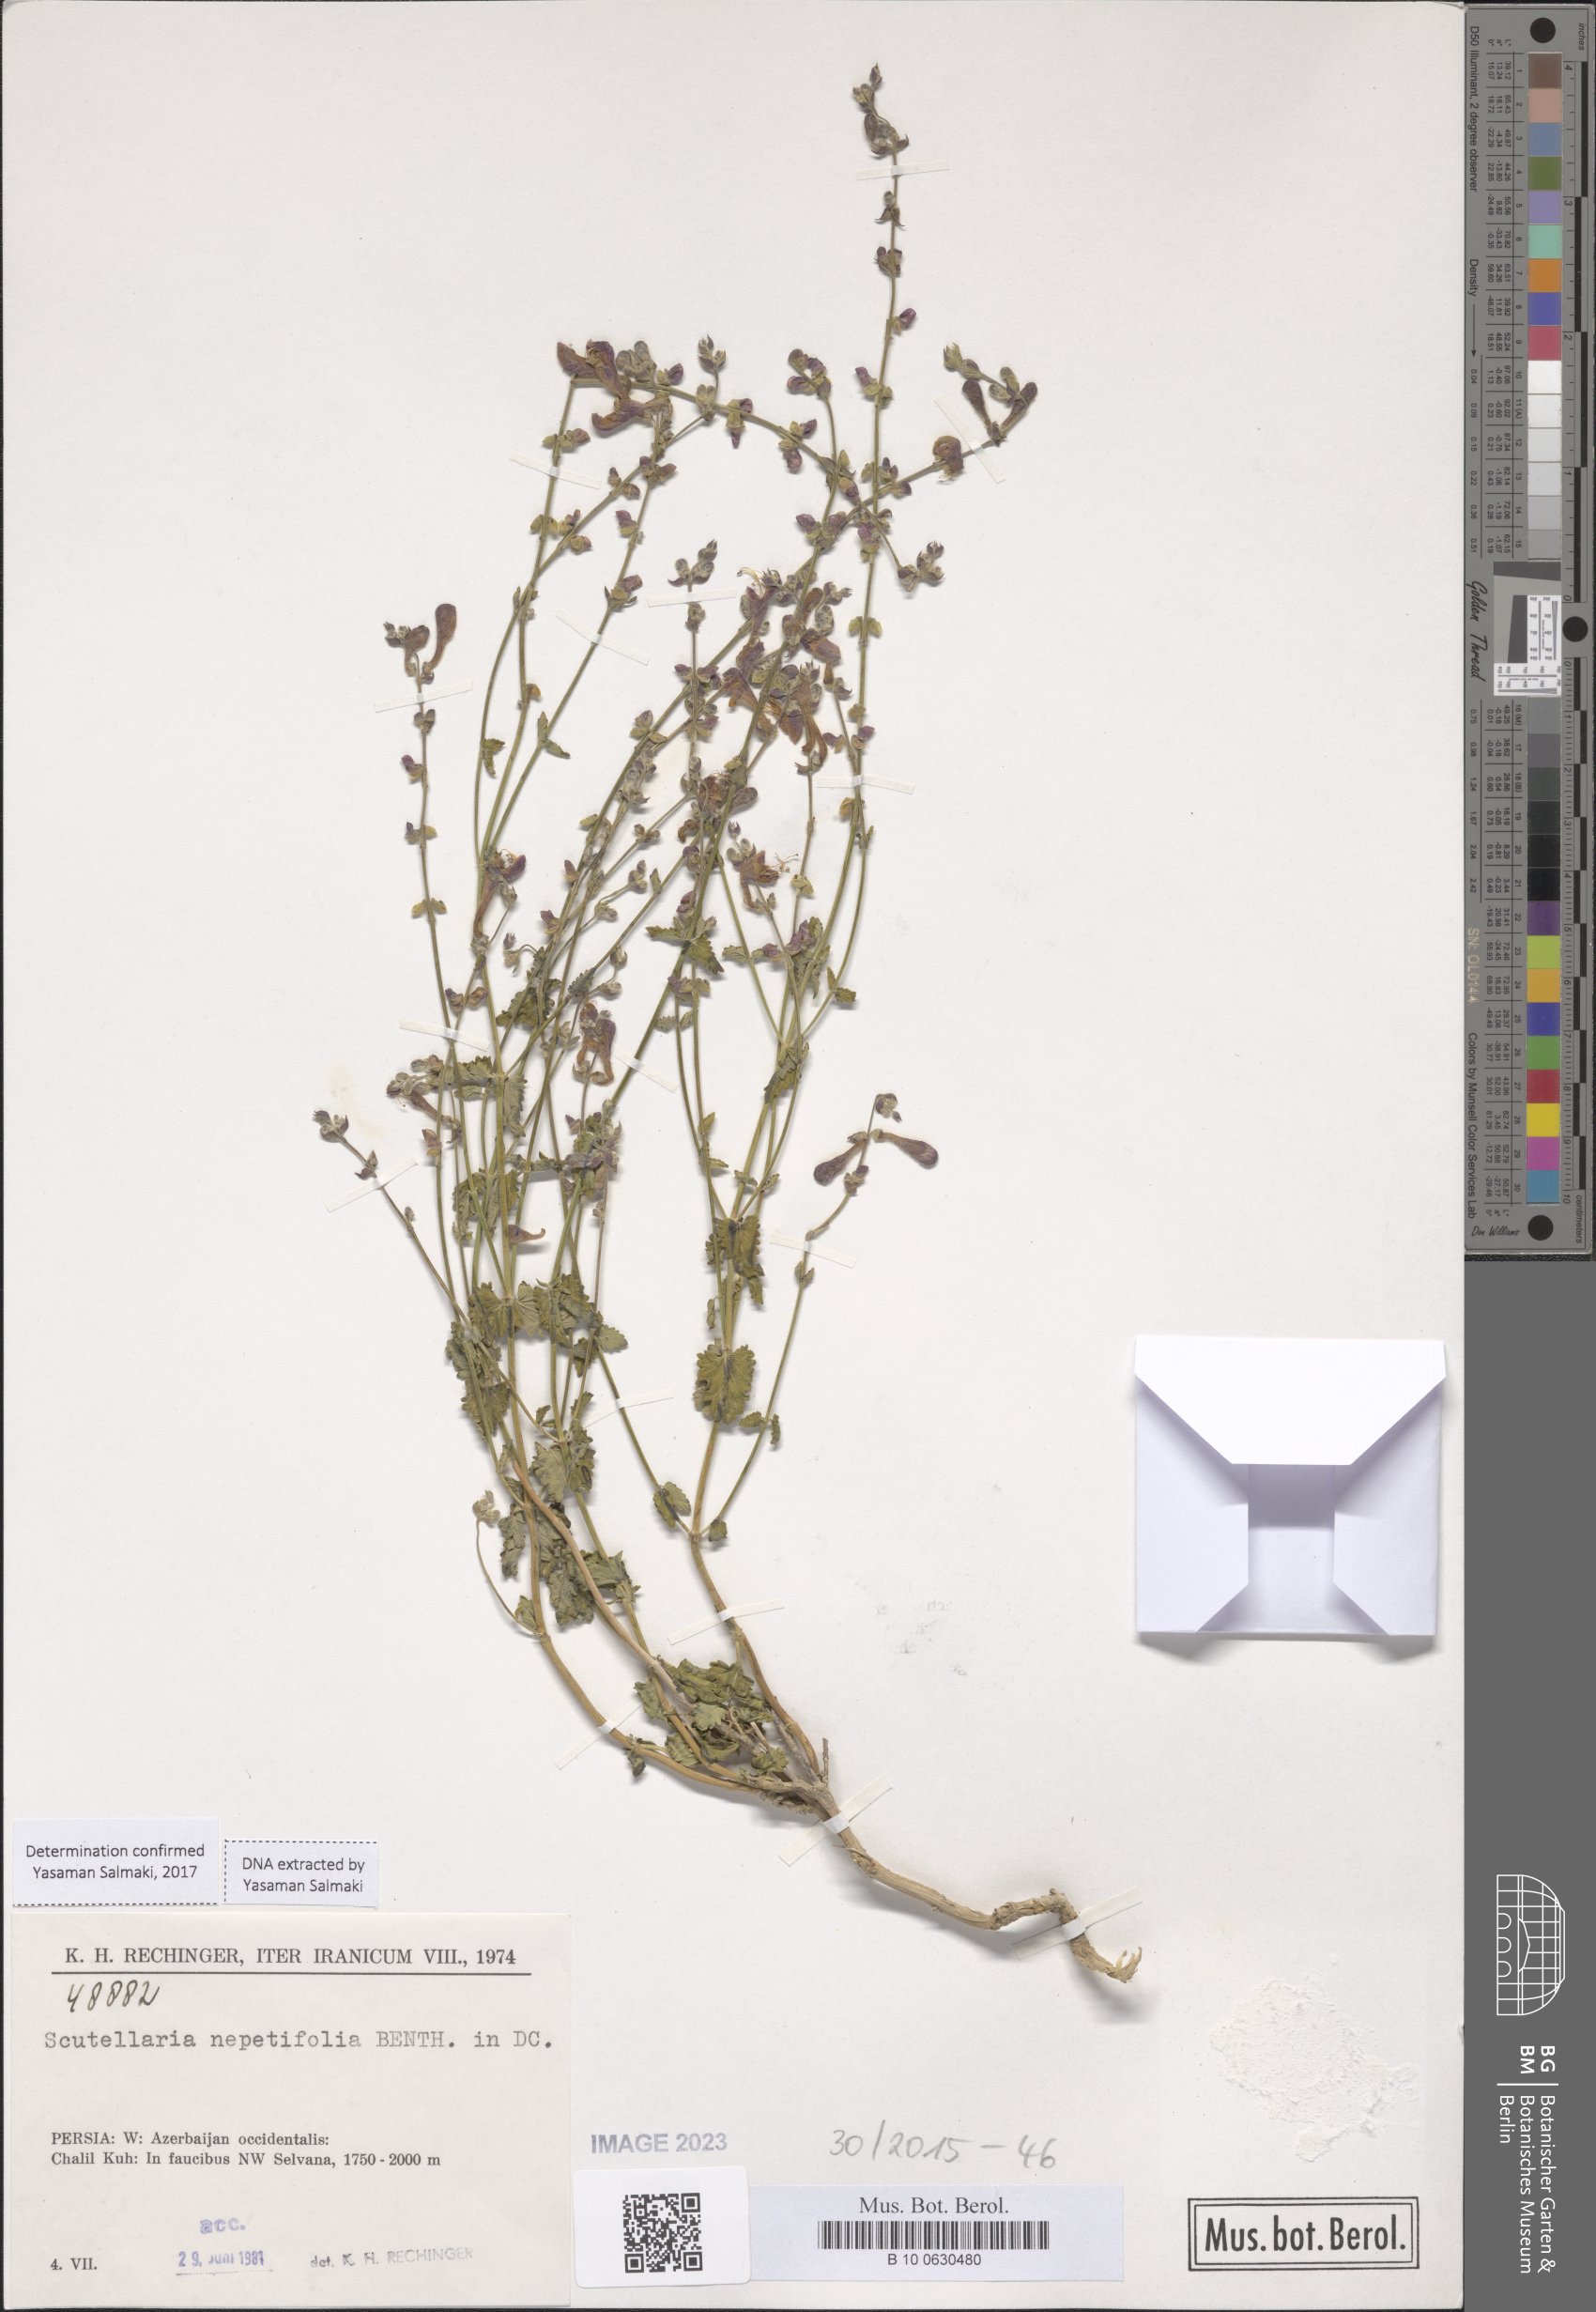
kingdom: Plantae
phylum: Tracheophyta
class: Magnoliopsida
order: Lamiales
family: Lamiaceae
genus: Scutellaria
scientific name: Scutellaria nepetifolia
